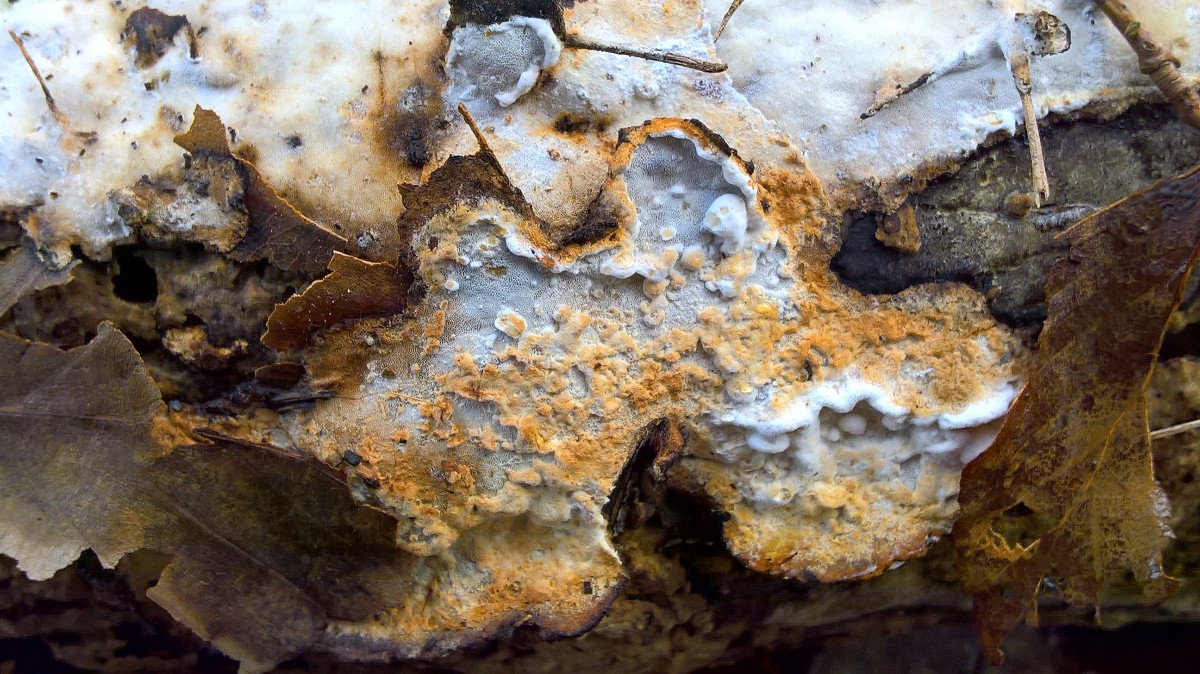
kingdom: Fungi
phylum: Basidiomycota
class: Agaricomycetes
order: Polyporales
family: Incrustoporiaceae
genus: Skeletocutis
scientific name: Skeletocutis nemoralis
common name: stor krystalporesvamp
